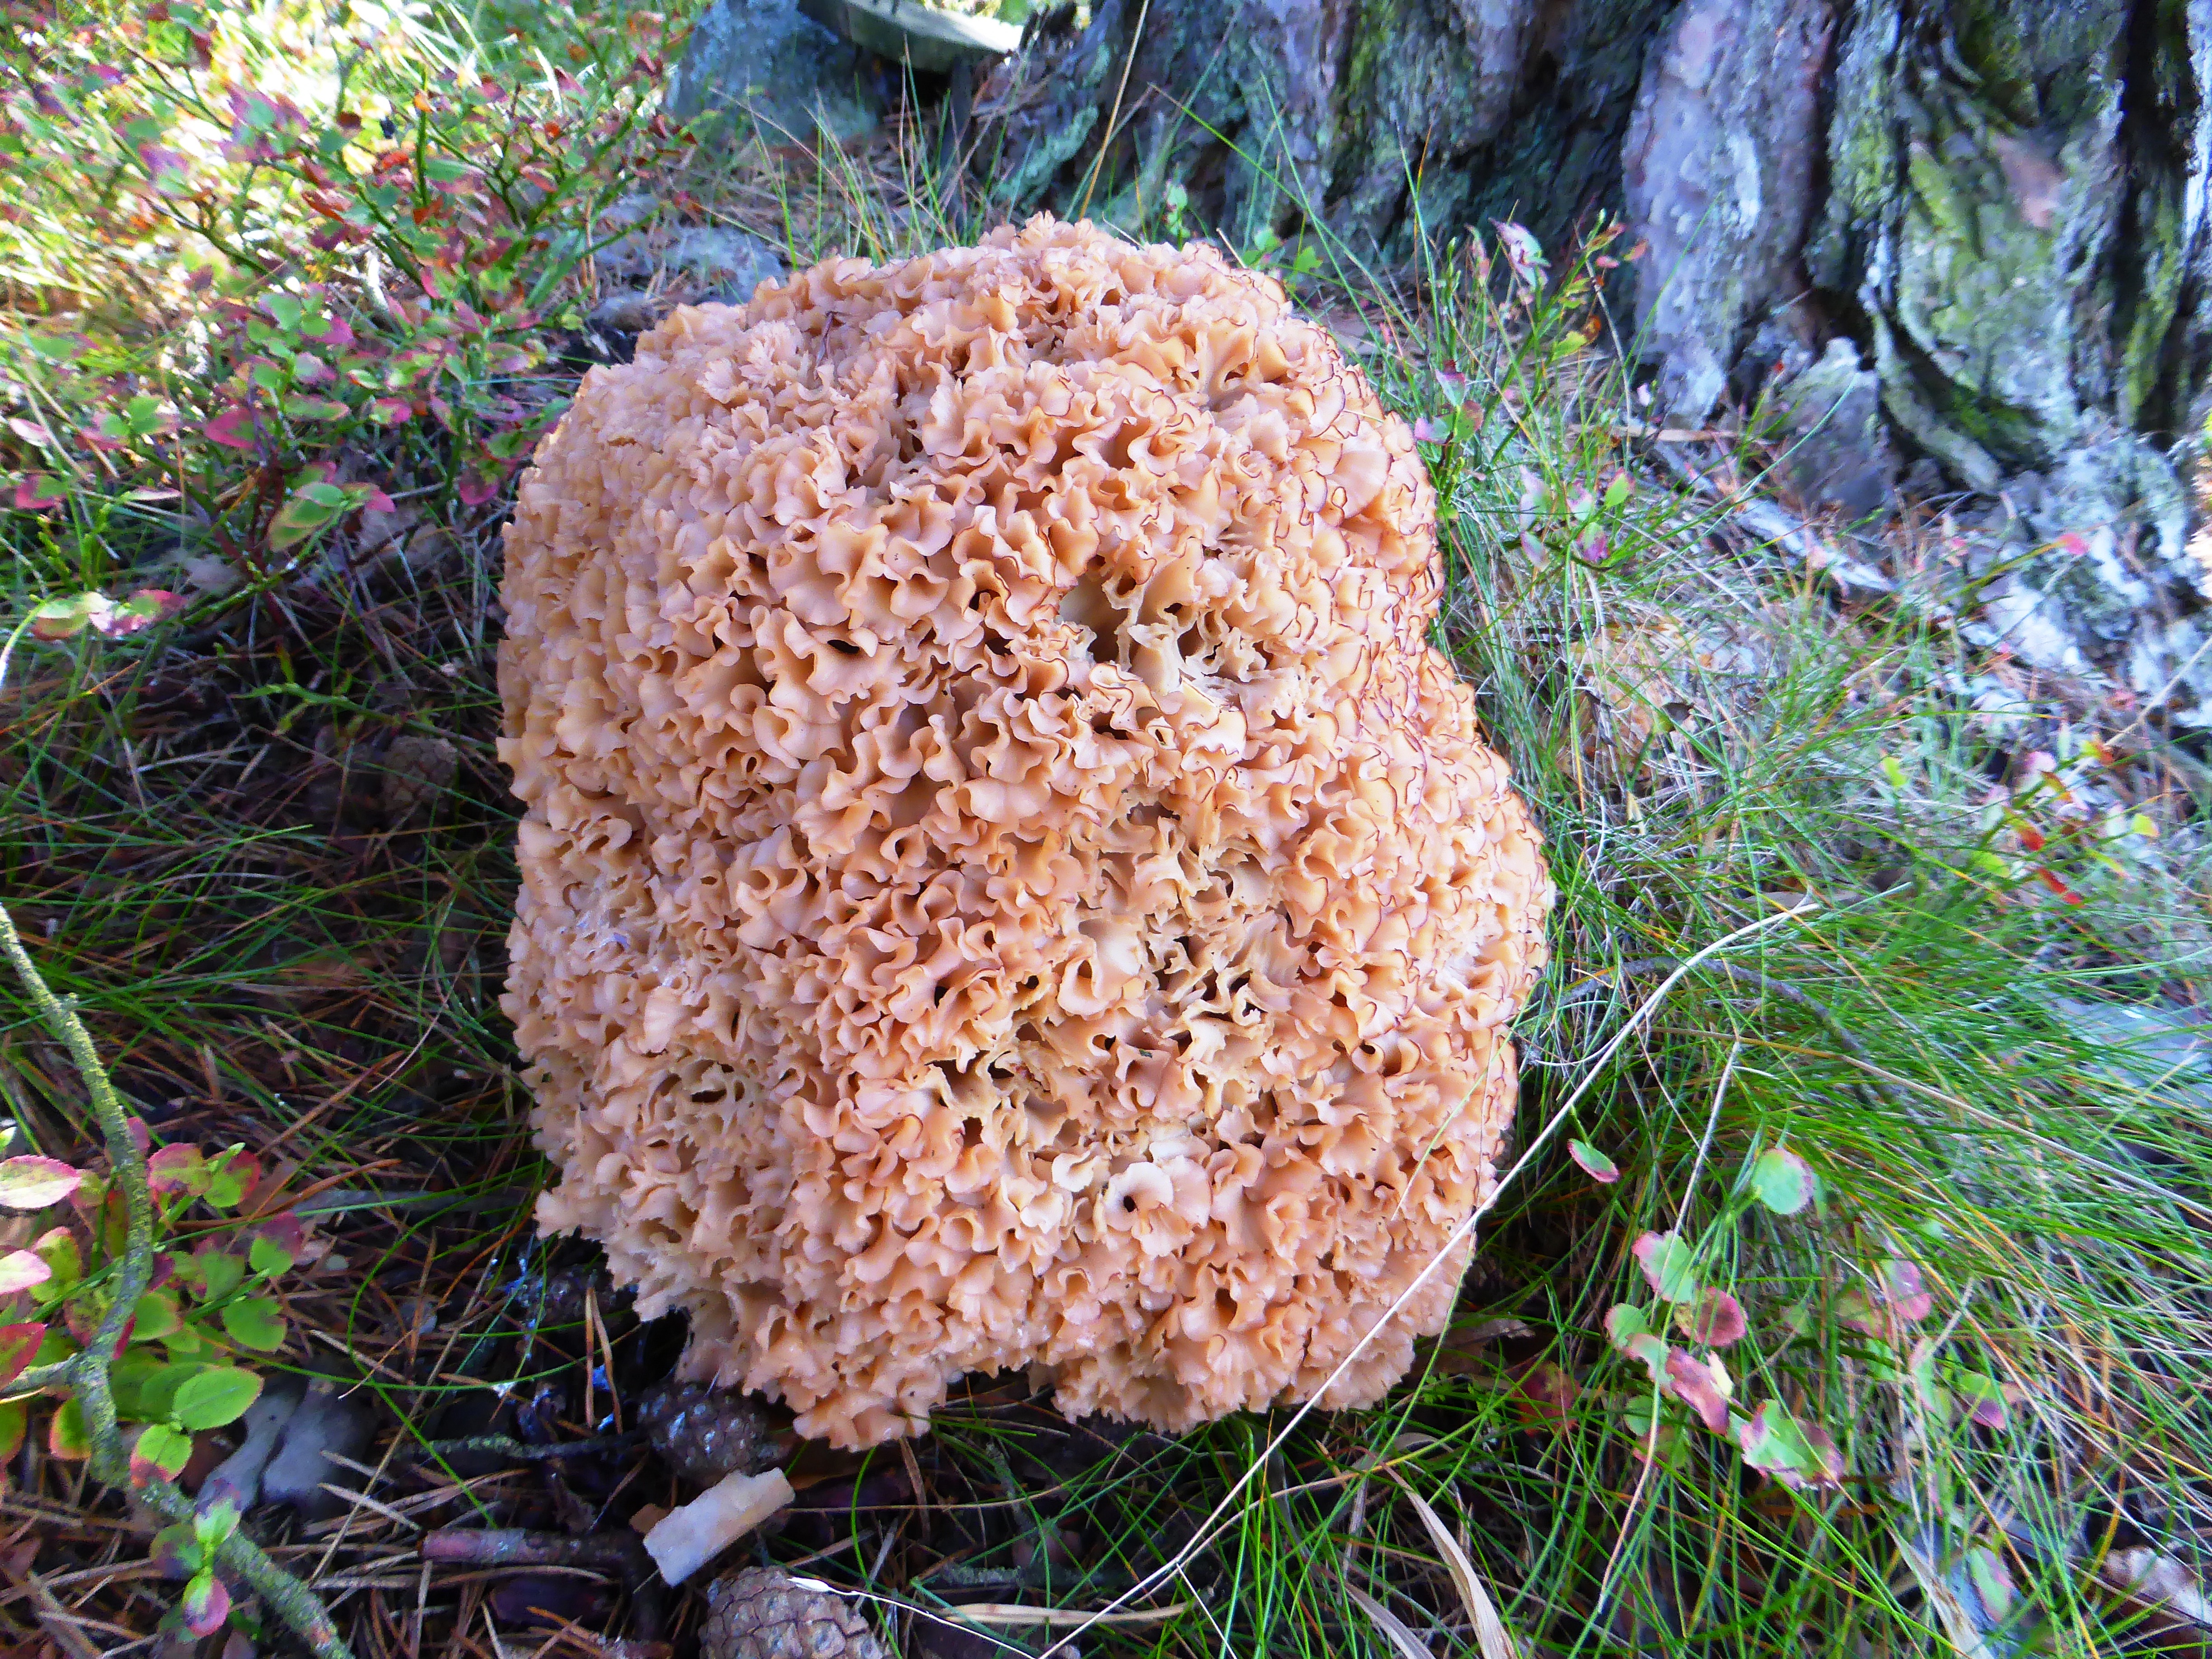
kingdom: Fungi
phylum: Basidiomycota
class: Agaricomycetes
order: Polyporales
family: Sparassidaceae
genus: Sparassis
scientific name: Sparassis crispa
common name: Brain fungus
